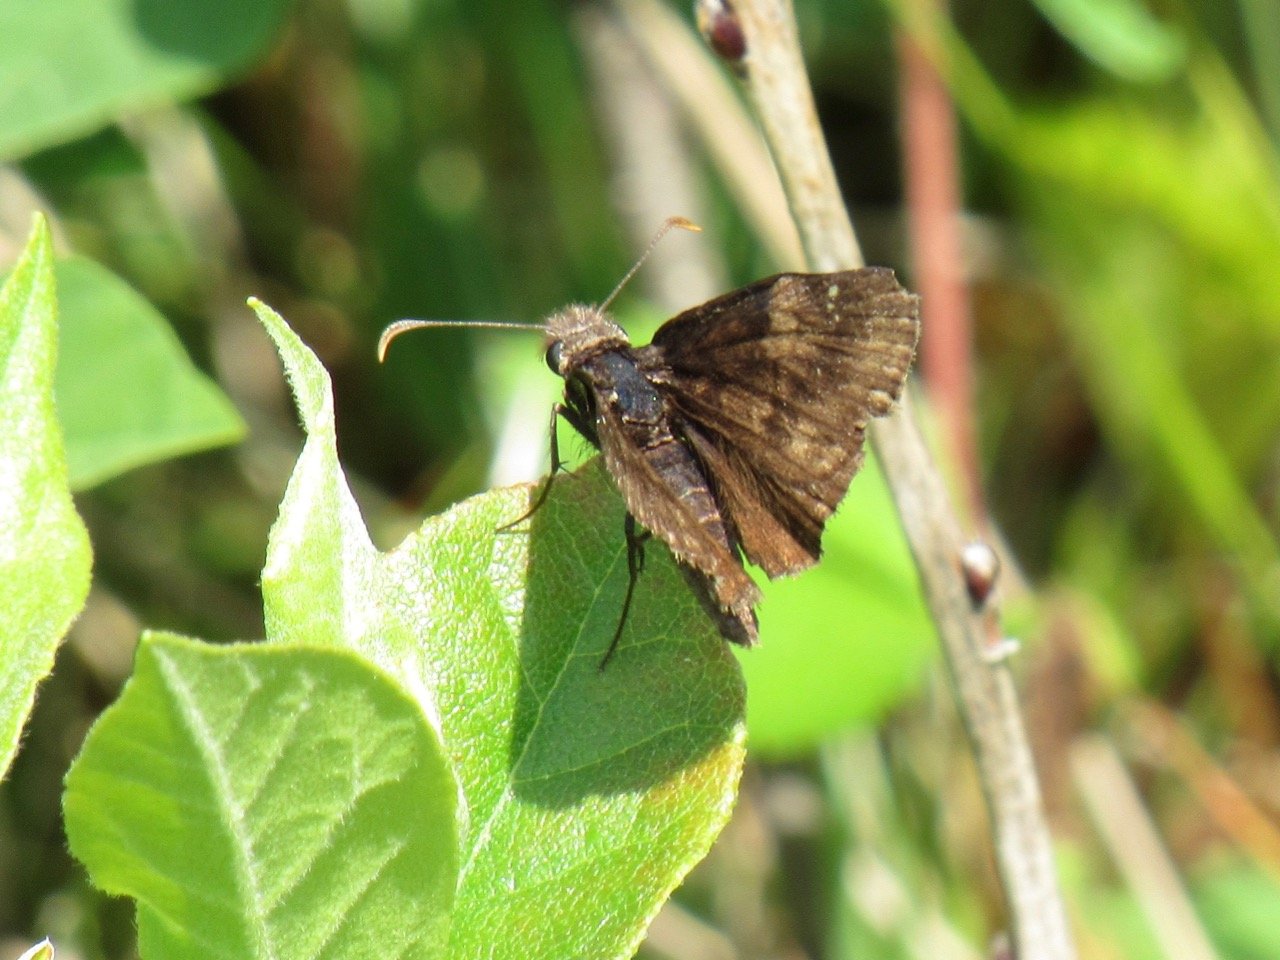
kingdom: Animalia
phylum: Arthropoda
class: Insecta
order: Lepidoptera
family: Hesperiidae
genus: Gesta
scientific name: Gesta
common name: Wild Indigo Duskywing
